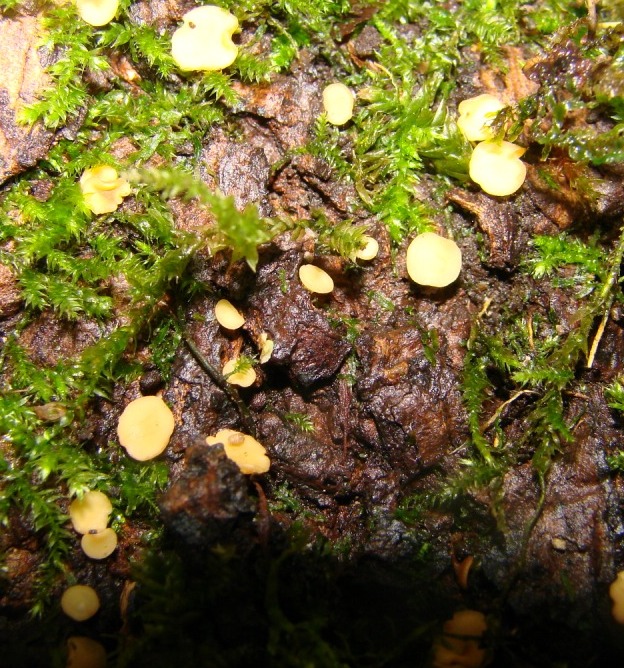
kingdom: Fungi
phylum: Ascomycota
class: Leotiomycetes
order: Helotiales
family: Helotiaceae
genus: Hymenoscyphus
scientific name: Hymenoscyphus calyculus
